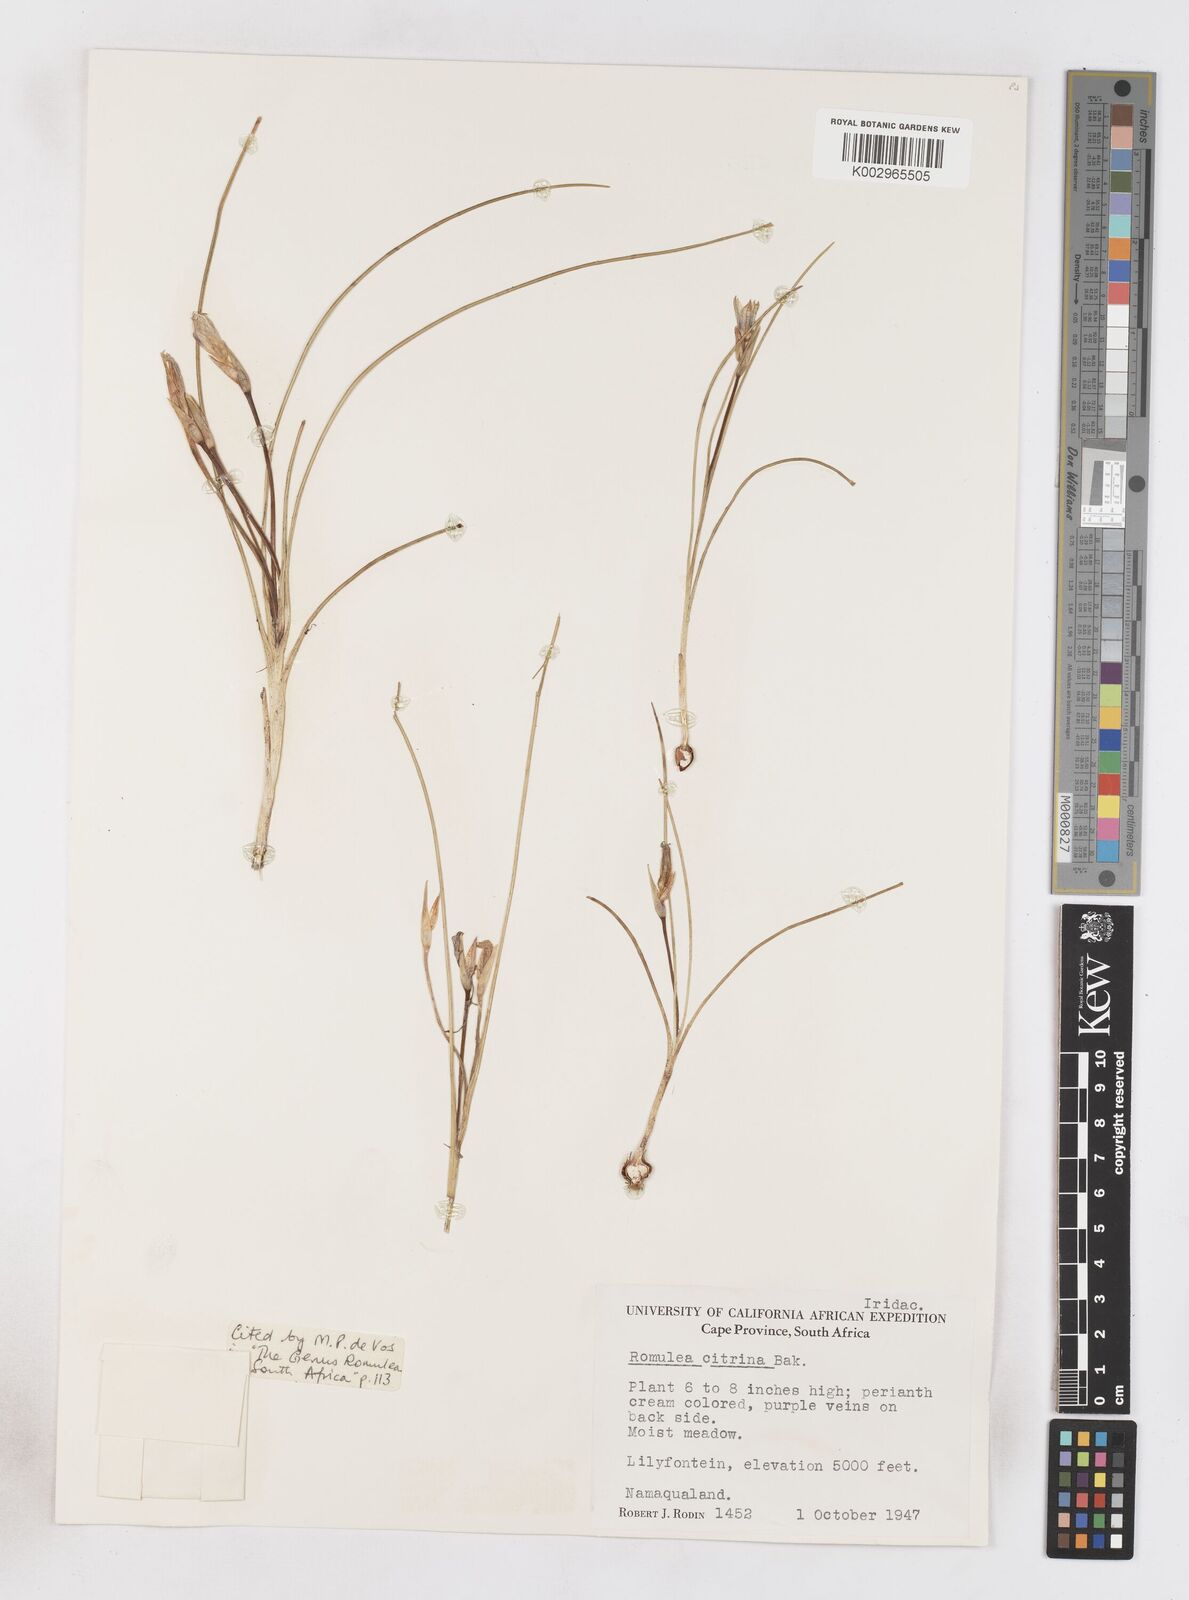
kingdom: Plantae
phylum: Tracheophyta
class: Liliopsida
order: Asparagales
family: Iridaceae
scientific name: Iridaceae
